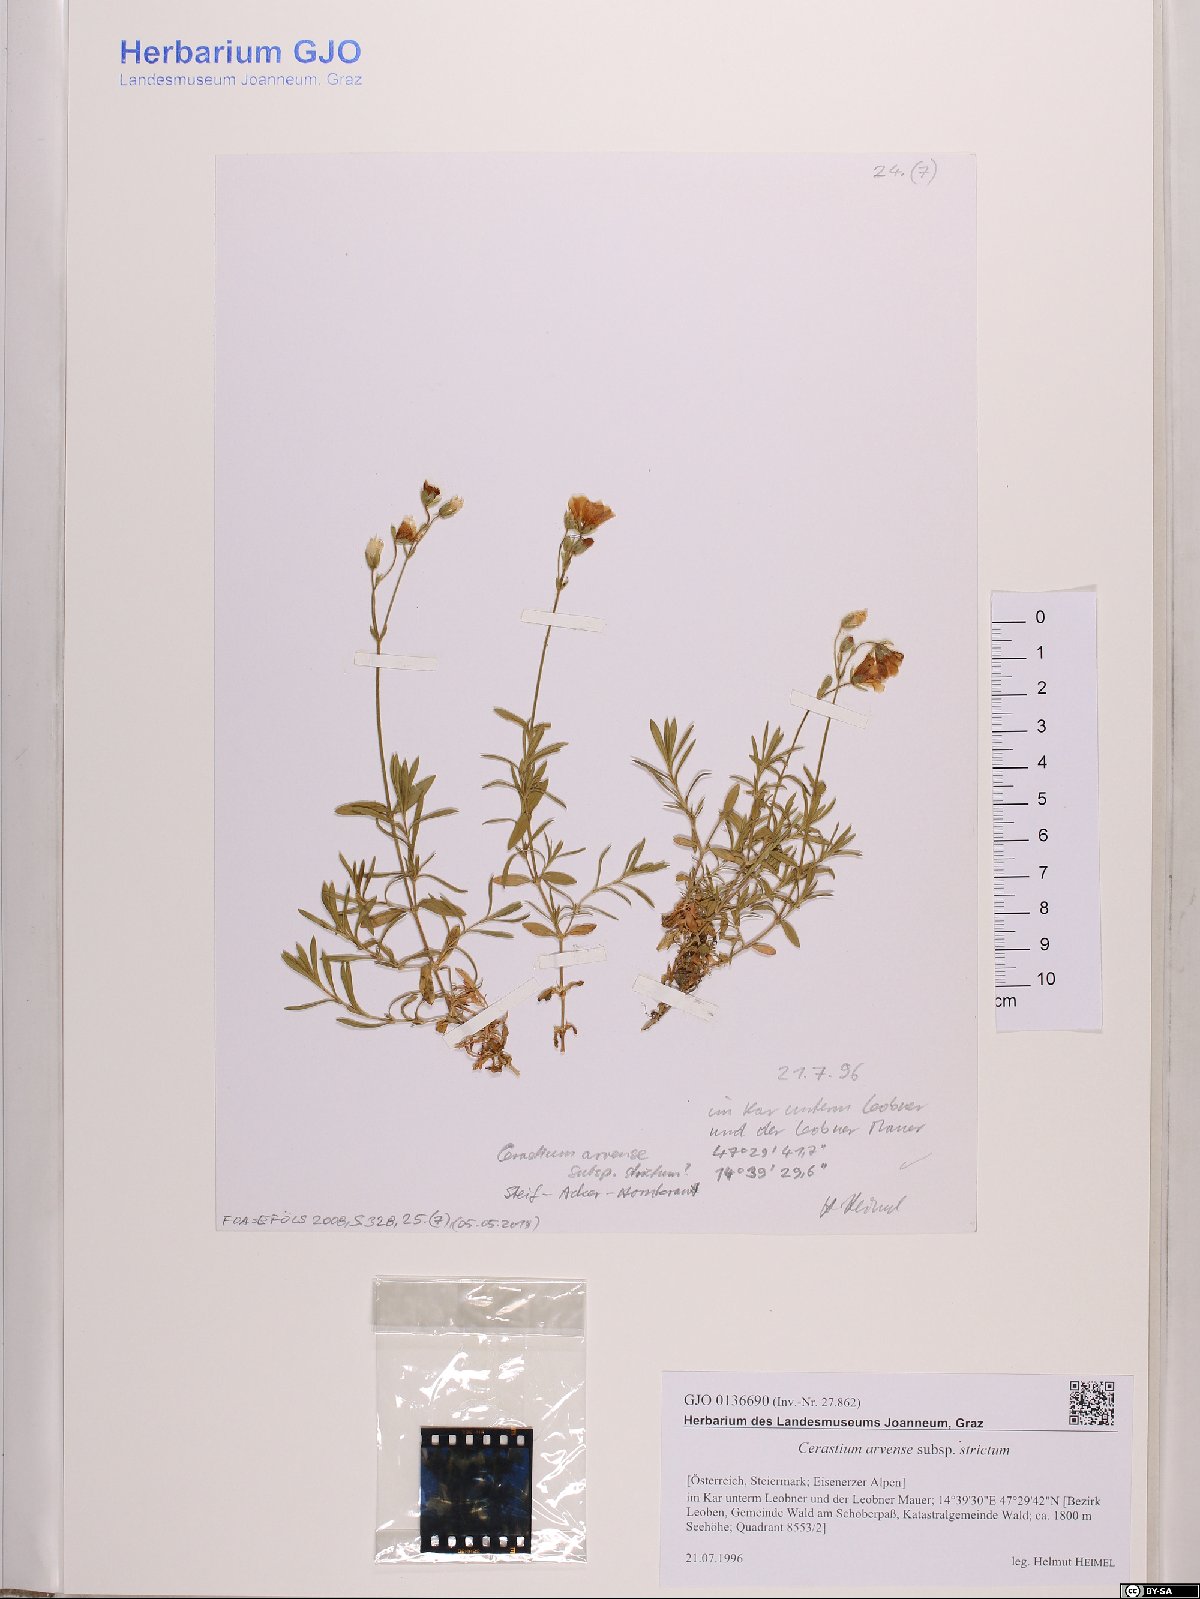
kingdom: Plantae
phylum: Tracheophyta
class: Magnoliopsida
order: Caryophyllales
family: Caryophyllaceae
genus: Cerastium
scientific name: Cerastium elongatum
